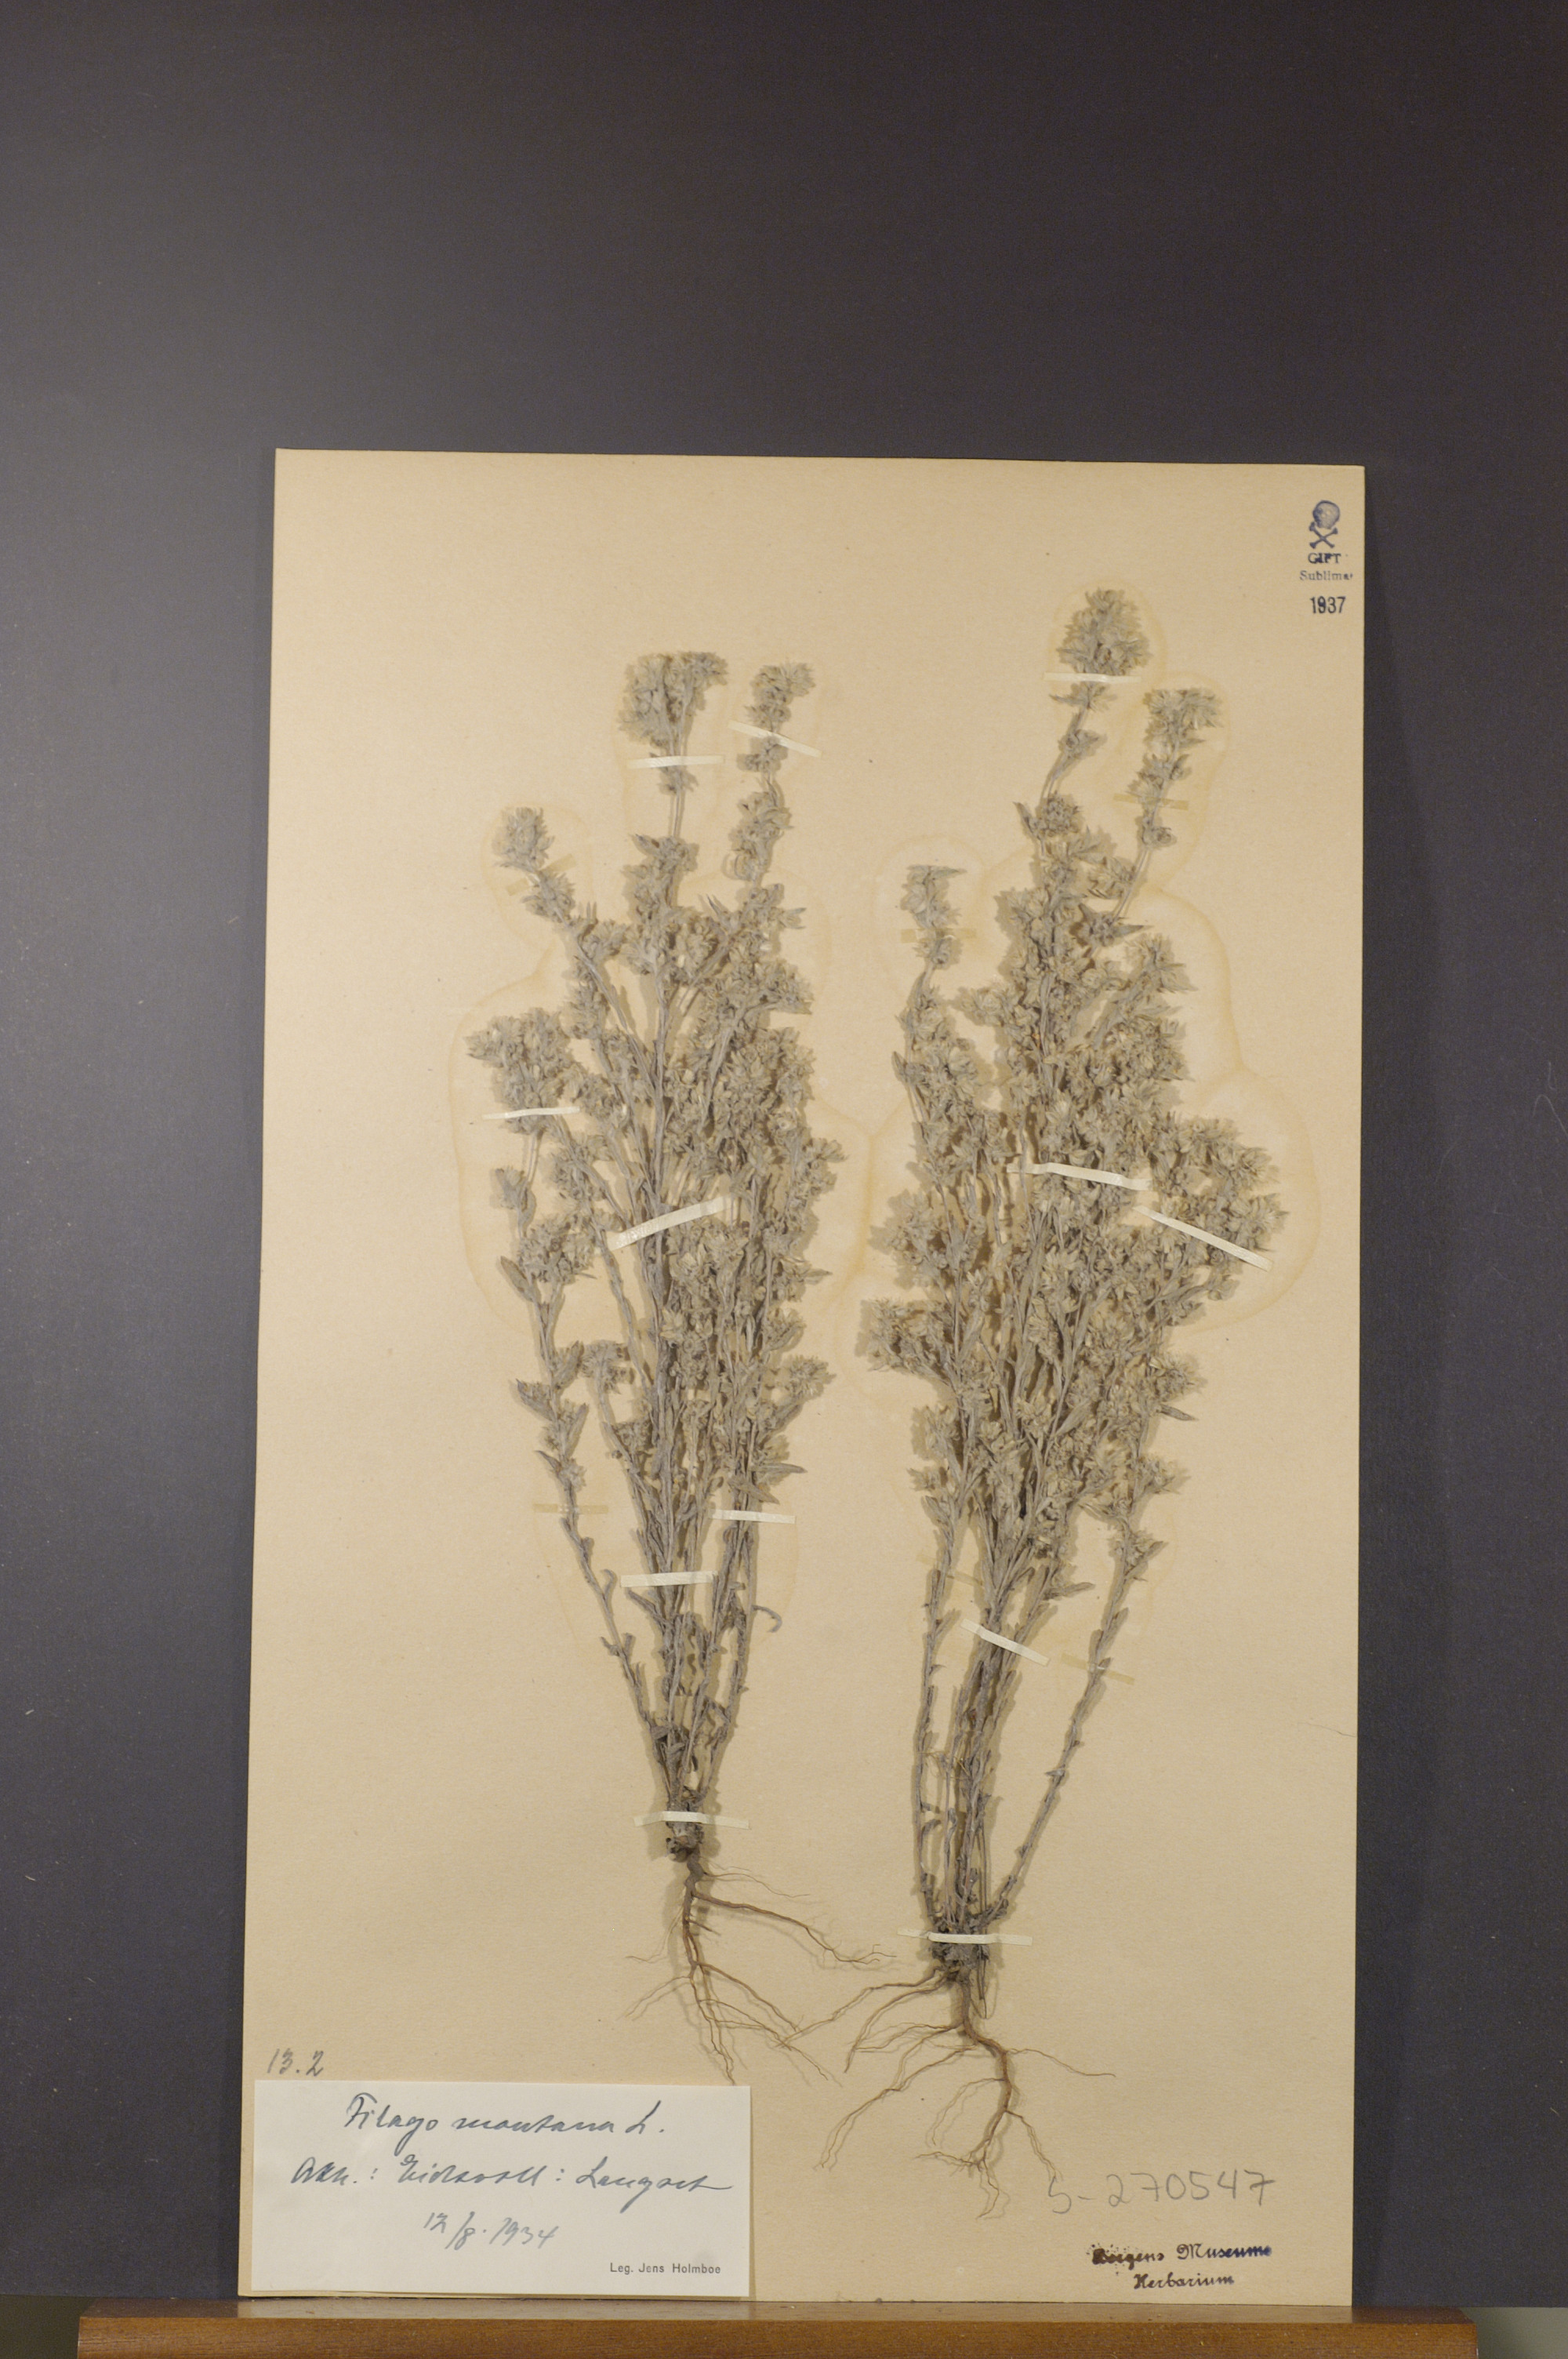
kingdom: Plantae
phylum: Tracheophyta
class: Magnoliopsida
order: Asterales
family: Asteraceae
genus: Filago
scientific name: Filago arvensis
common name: Field cudweed
